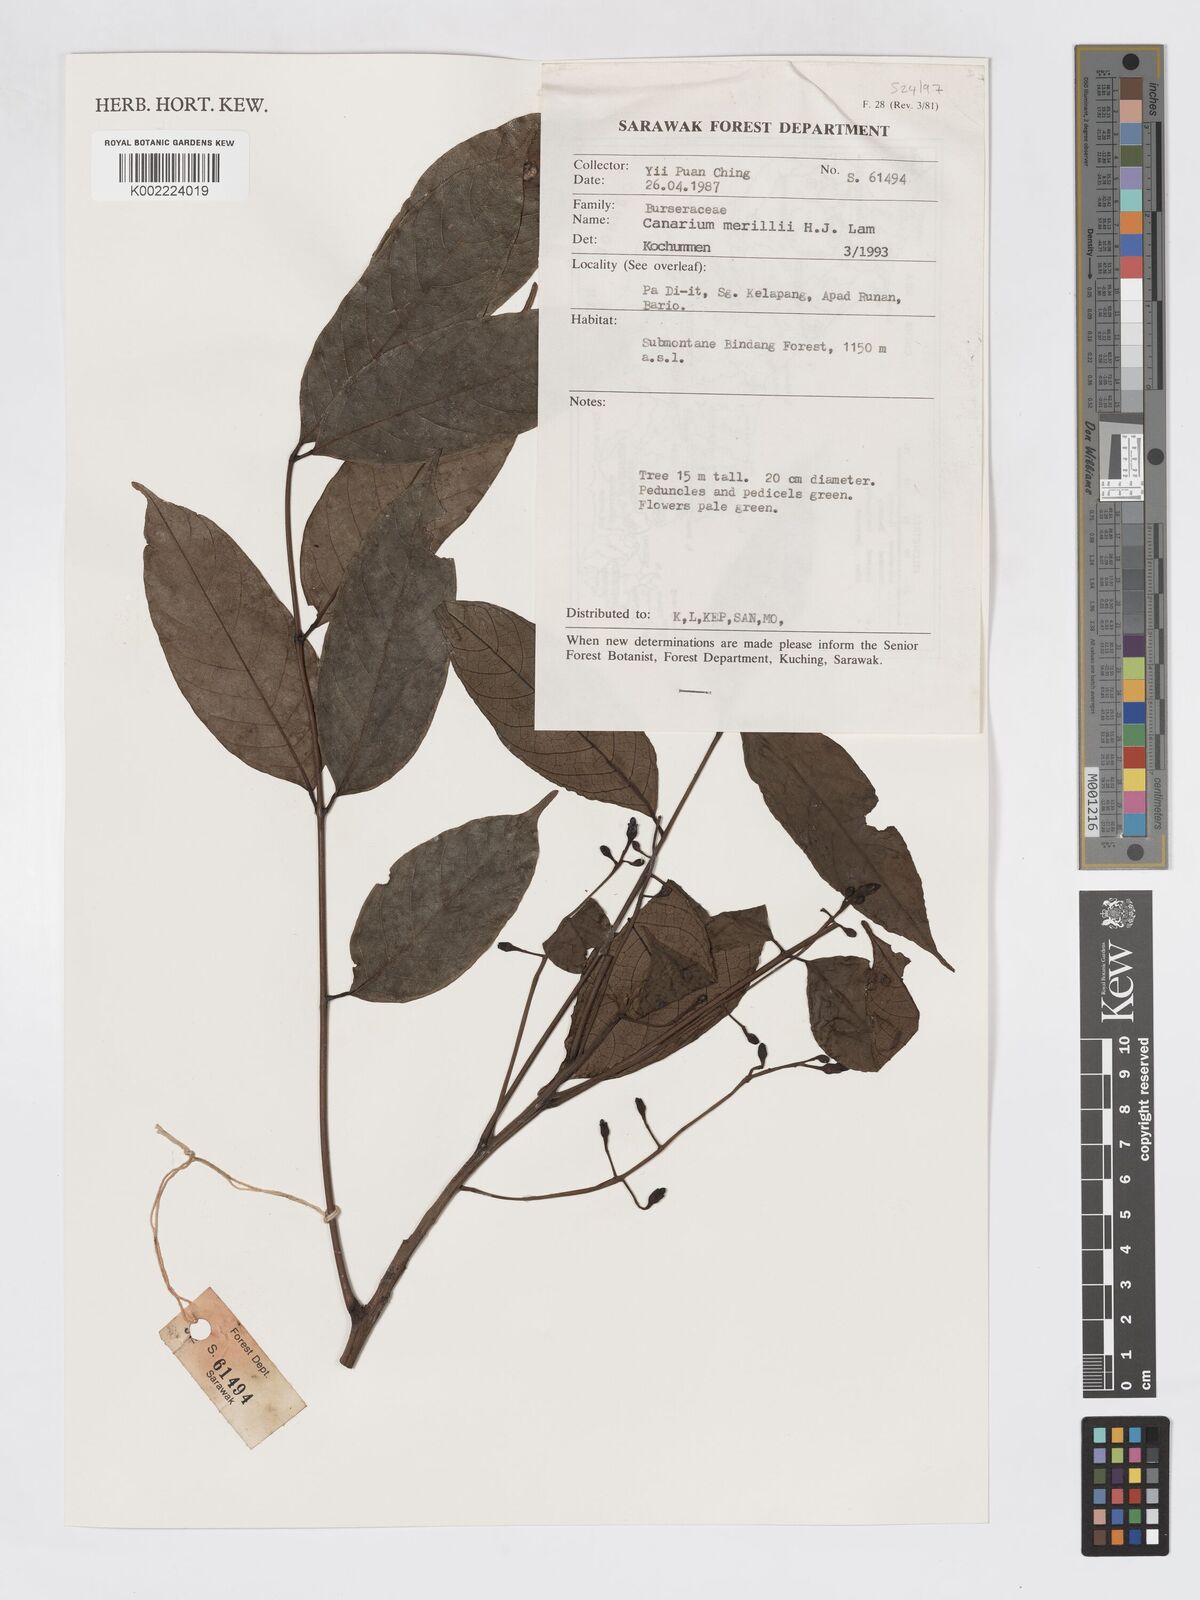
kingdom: Plantae
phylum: Tracheophyta
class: Magnoliopsida
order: Sapindales
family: Burseraceae
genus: Canarium
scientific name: Canarium merrillii
